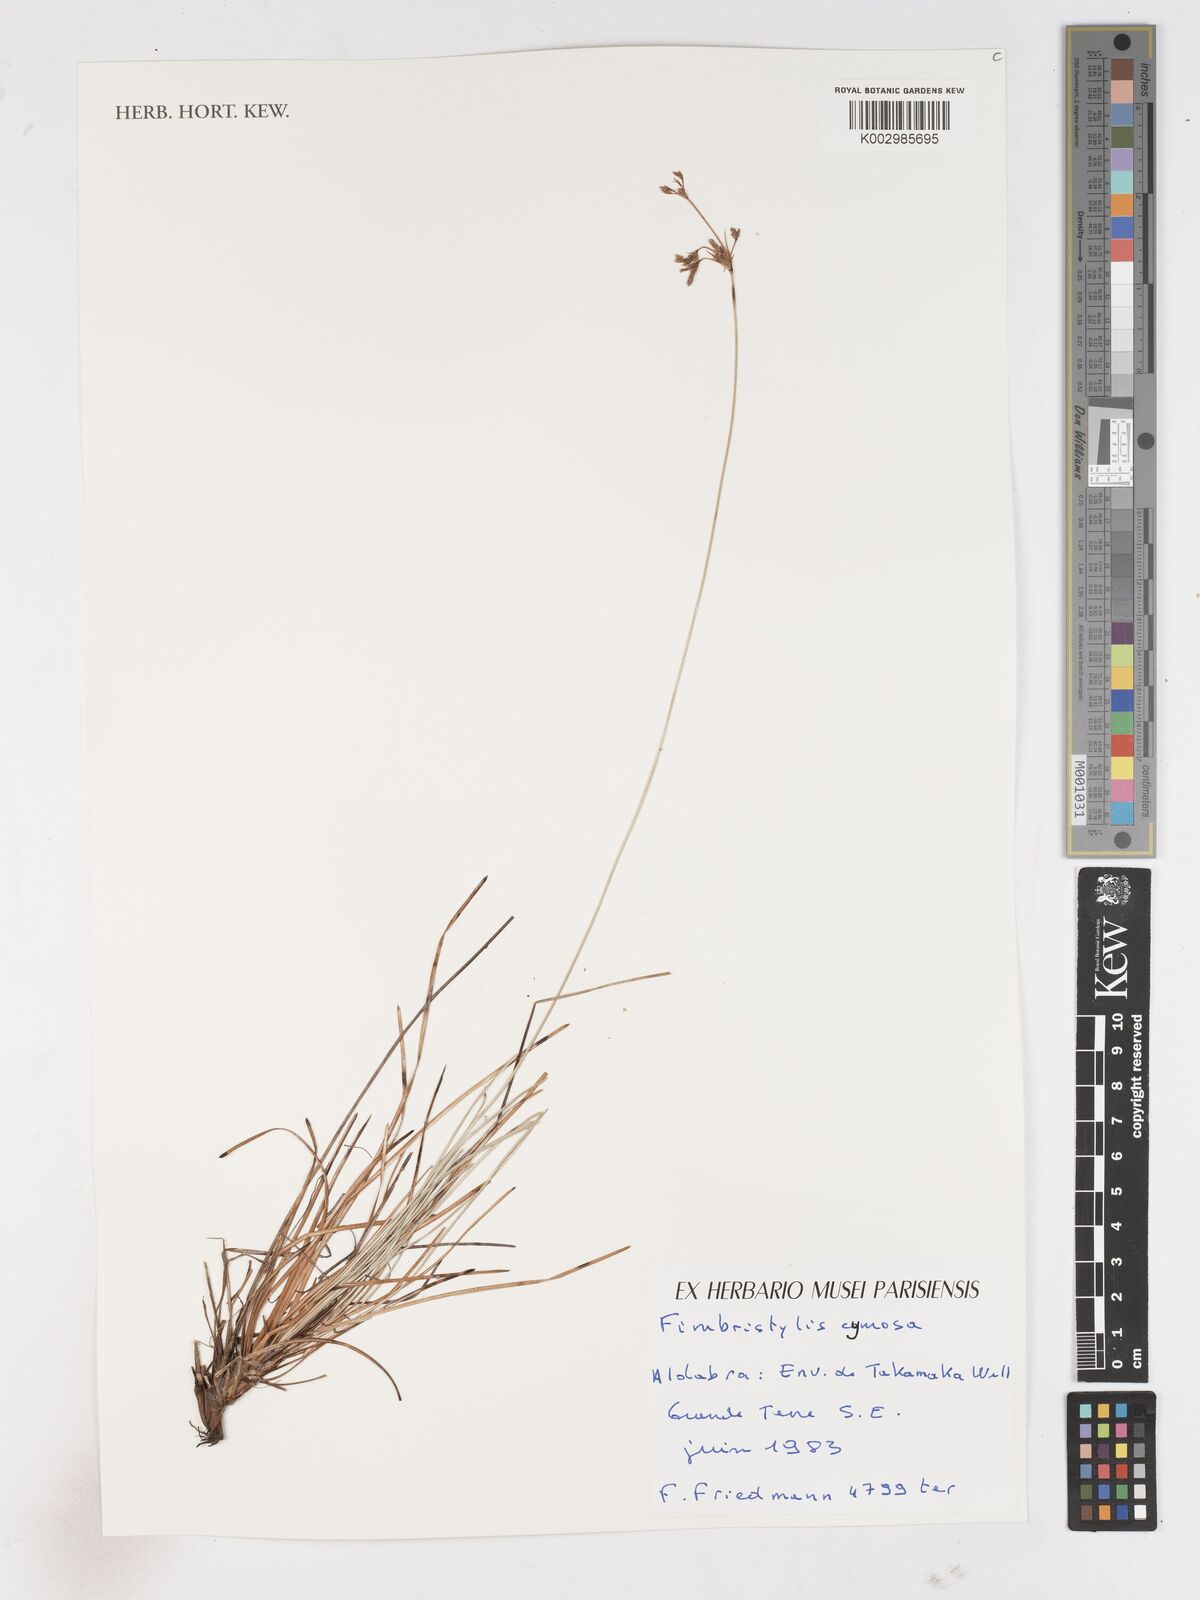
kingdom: Plantae
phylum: Tracheophyta
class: Liliopsida
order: Poales
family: Cyperaceae
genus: Fimbristylis
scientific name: Fimbristylis cymosa
